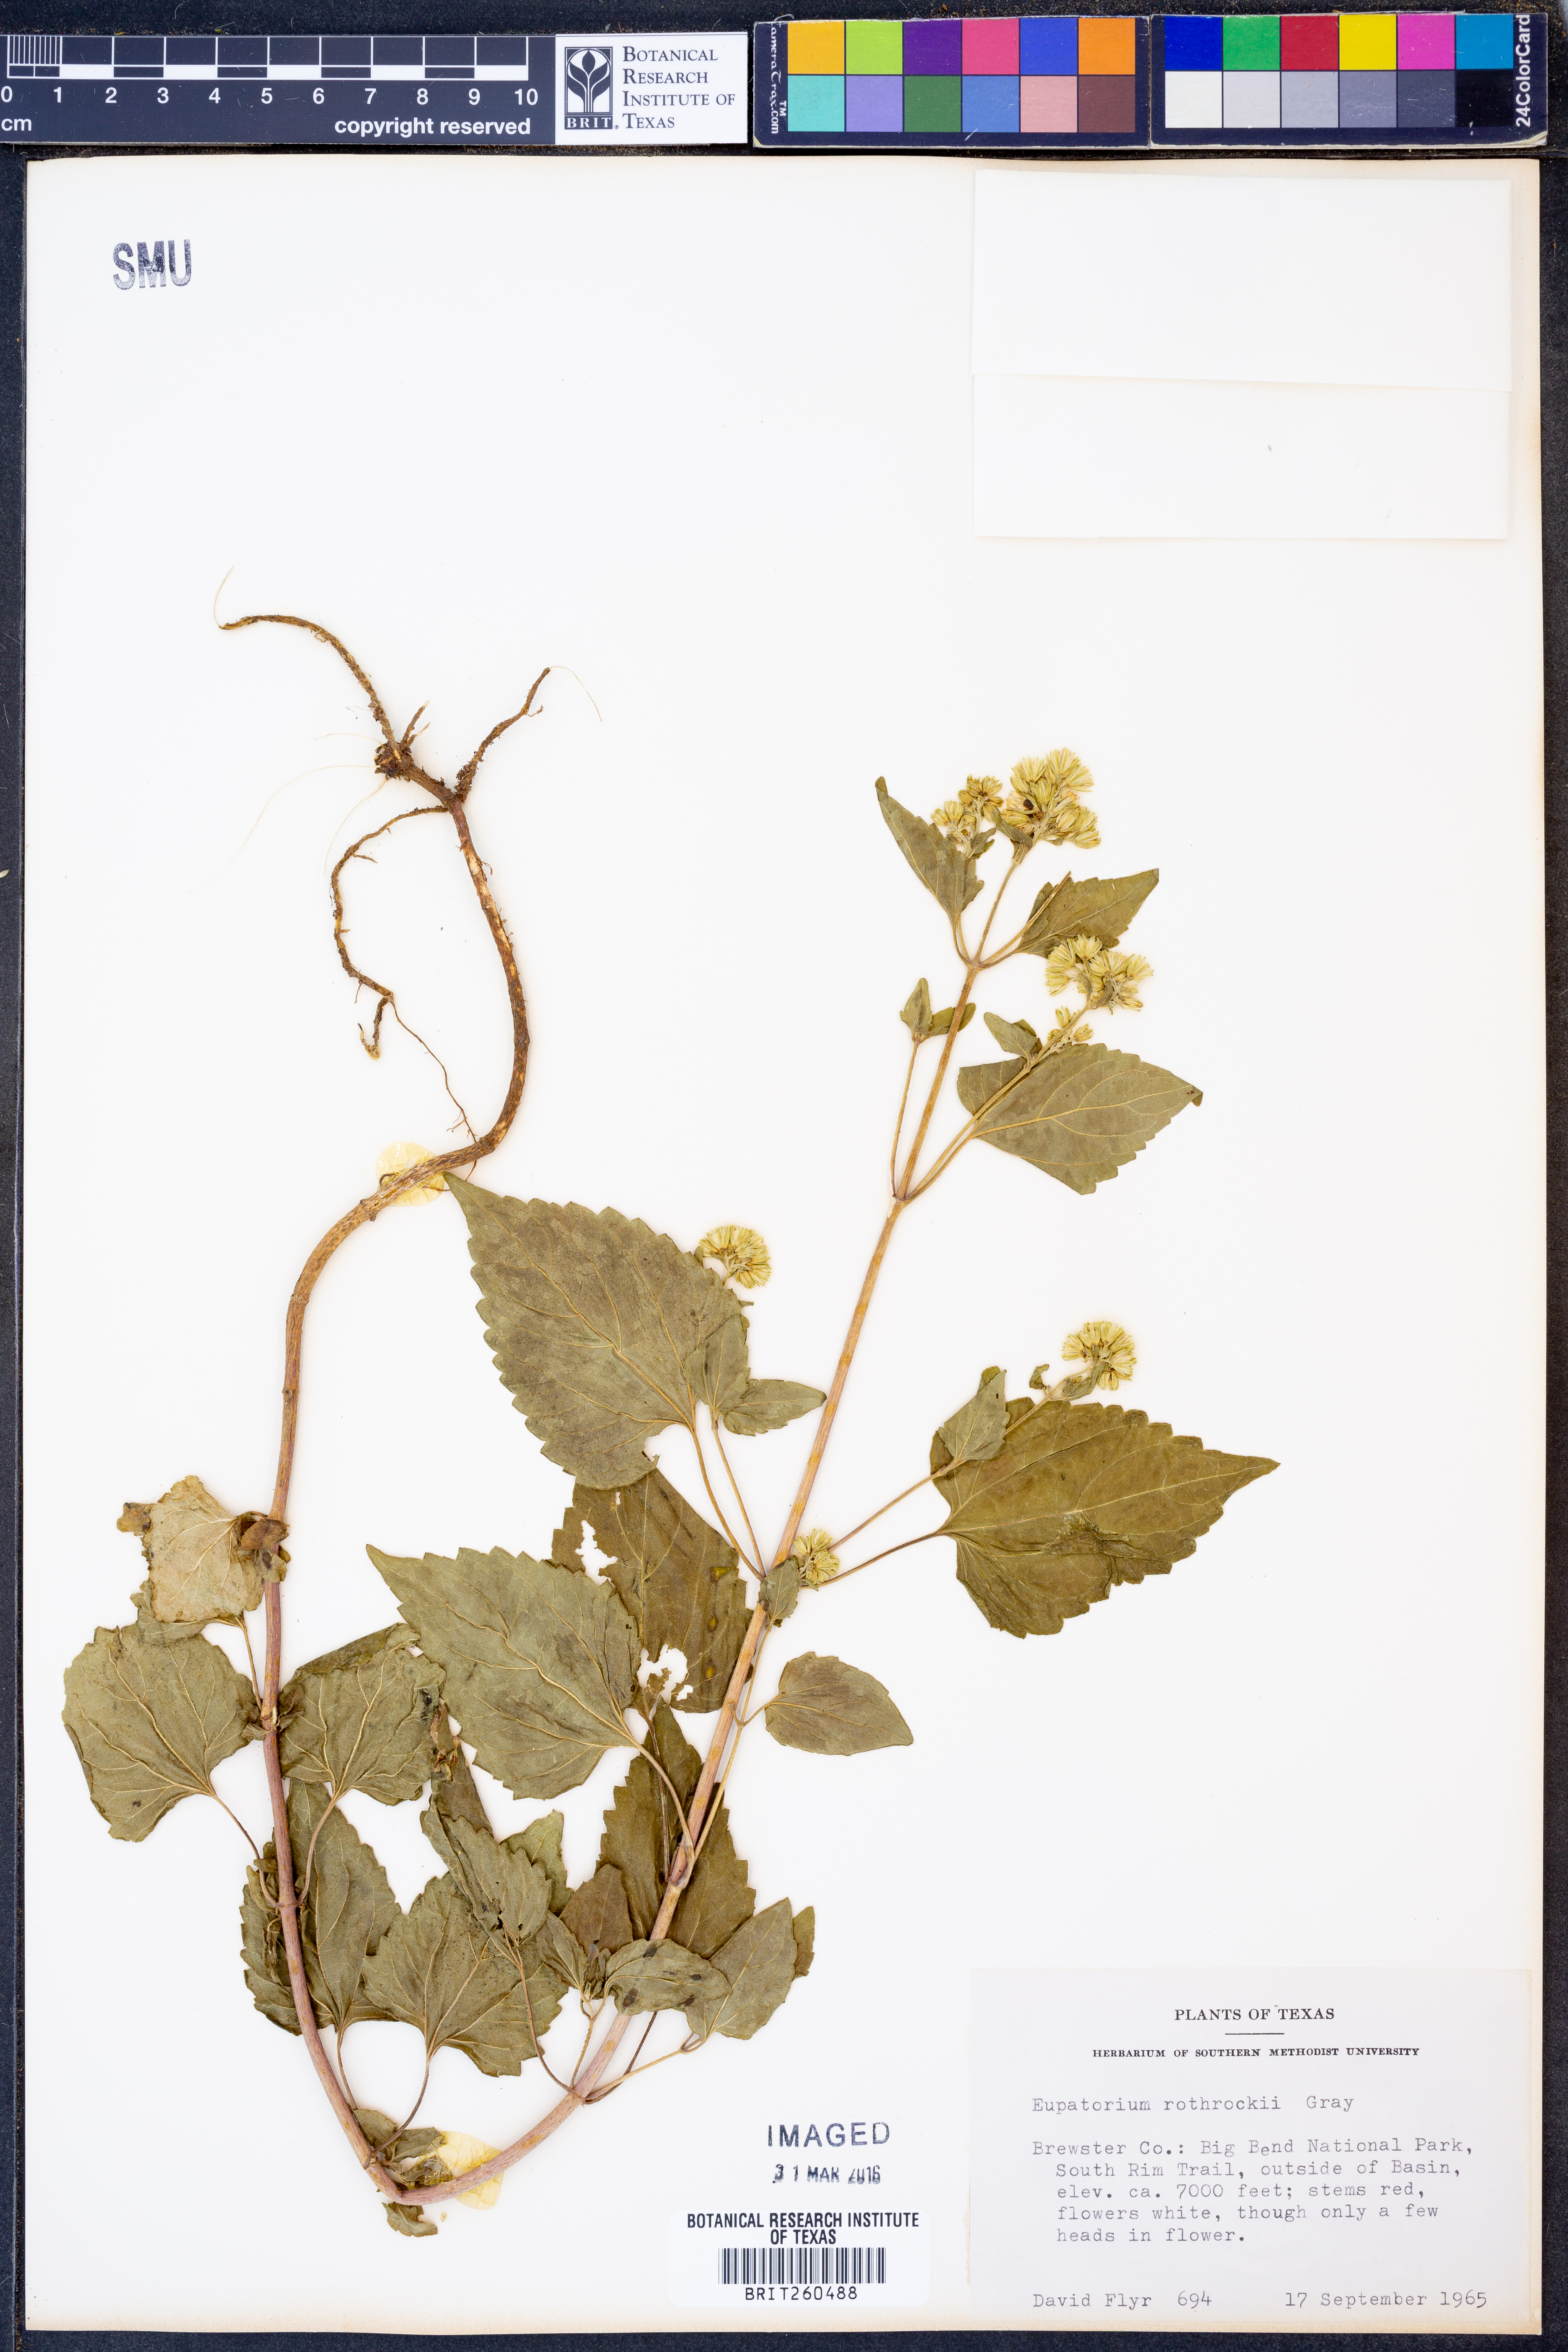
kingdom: Plantae
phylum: Tracheophyta
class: Magnoliopsida
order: Asterales
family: Asteraceae
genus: Ageratina
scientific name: Ageratina rothrockii
